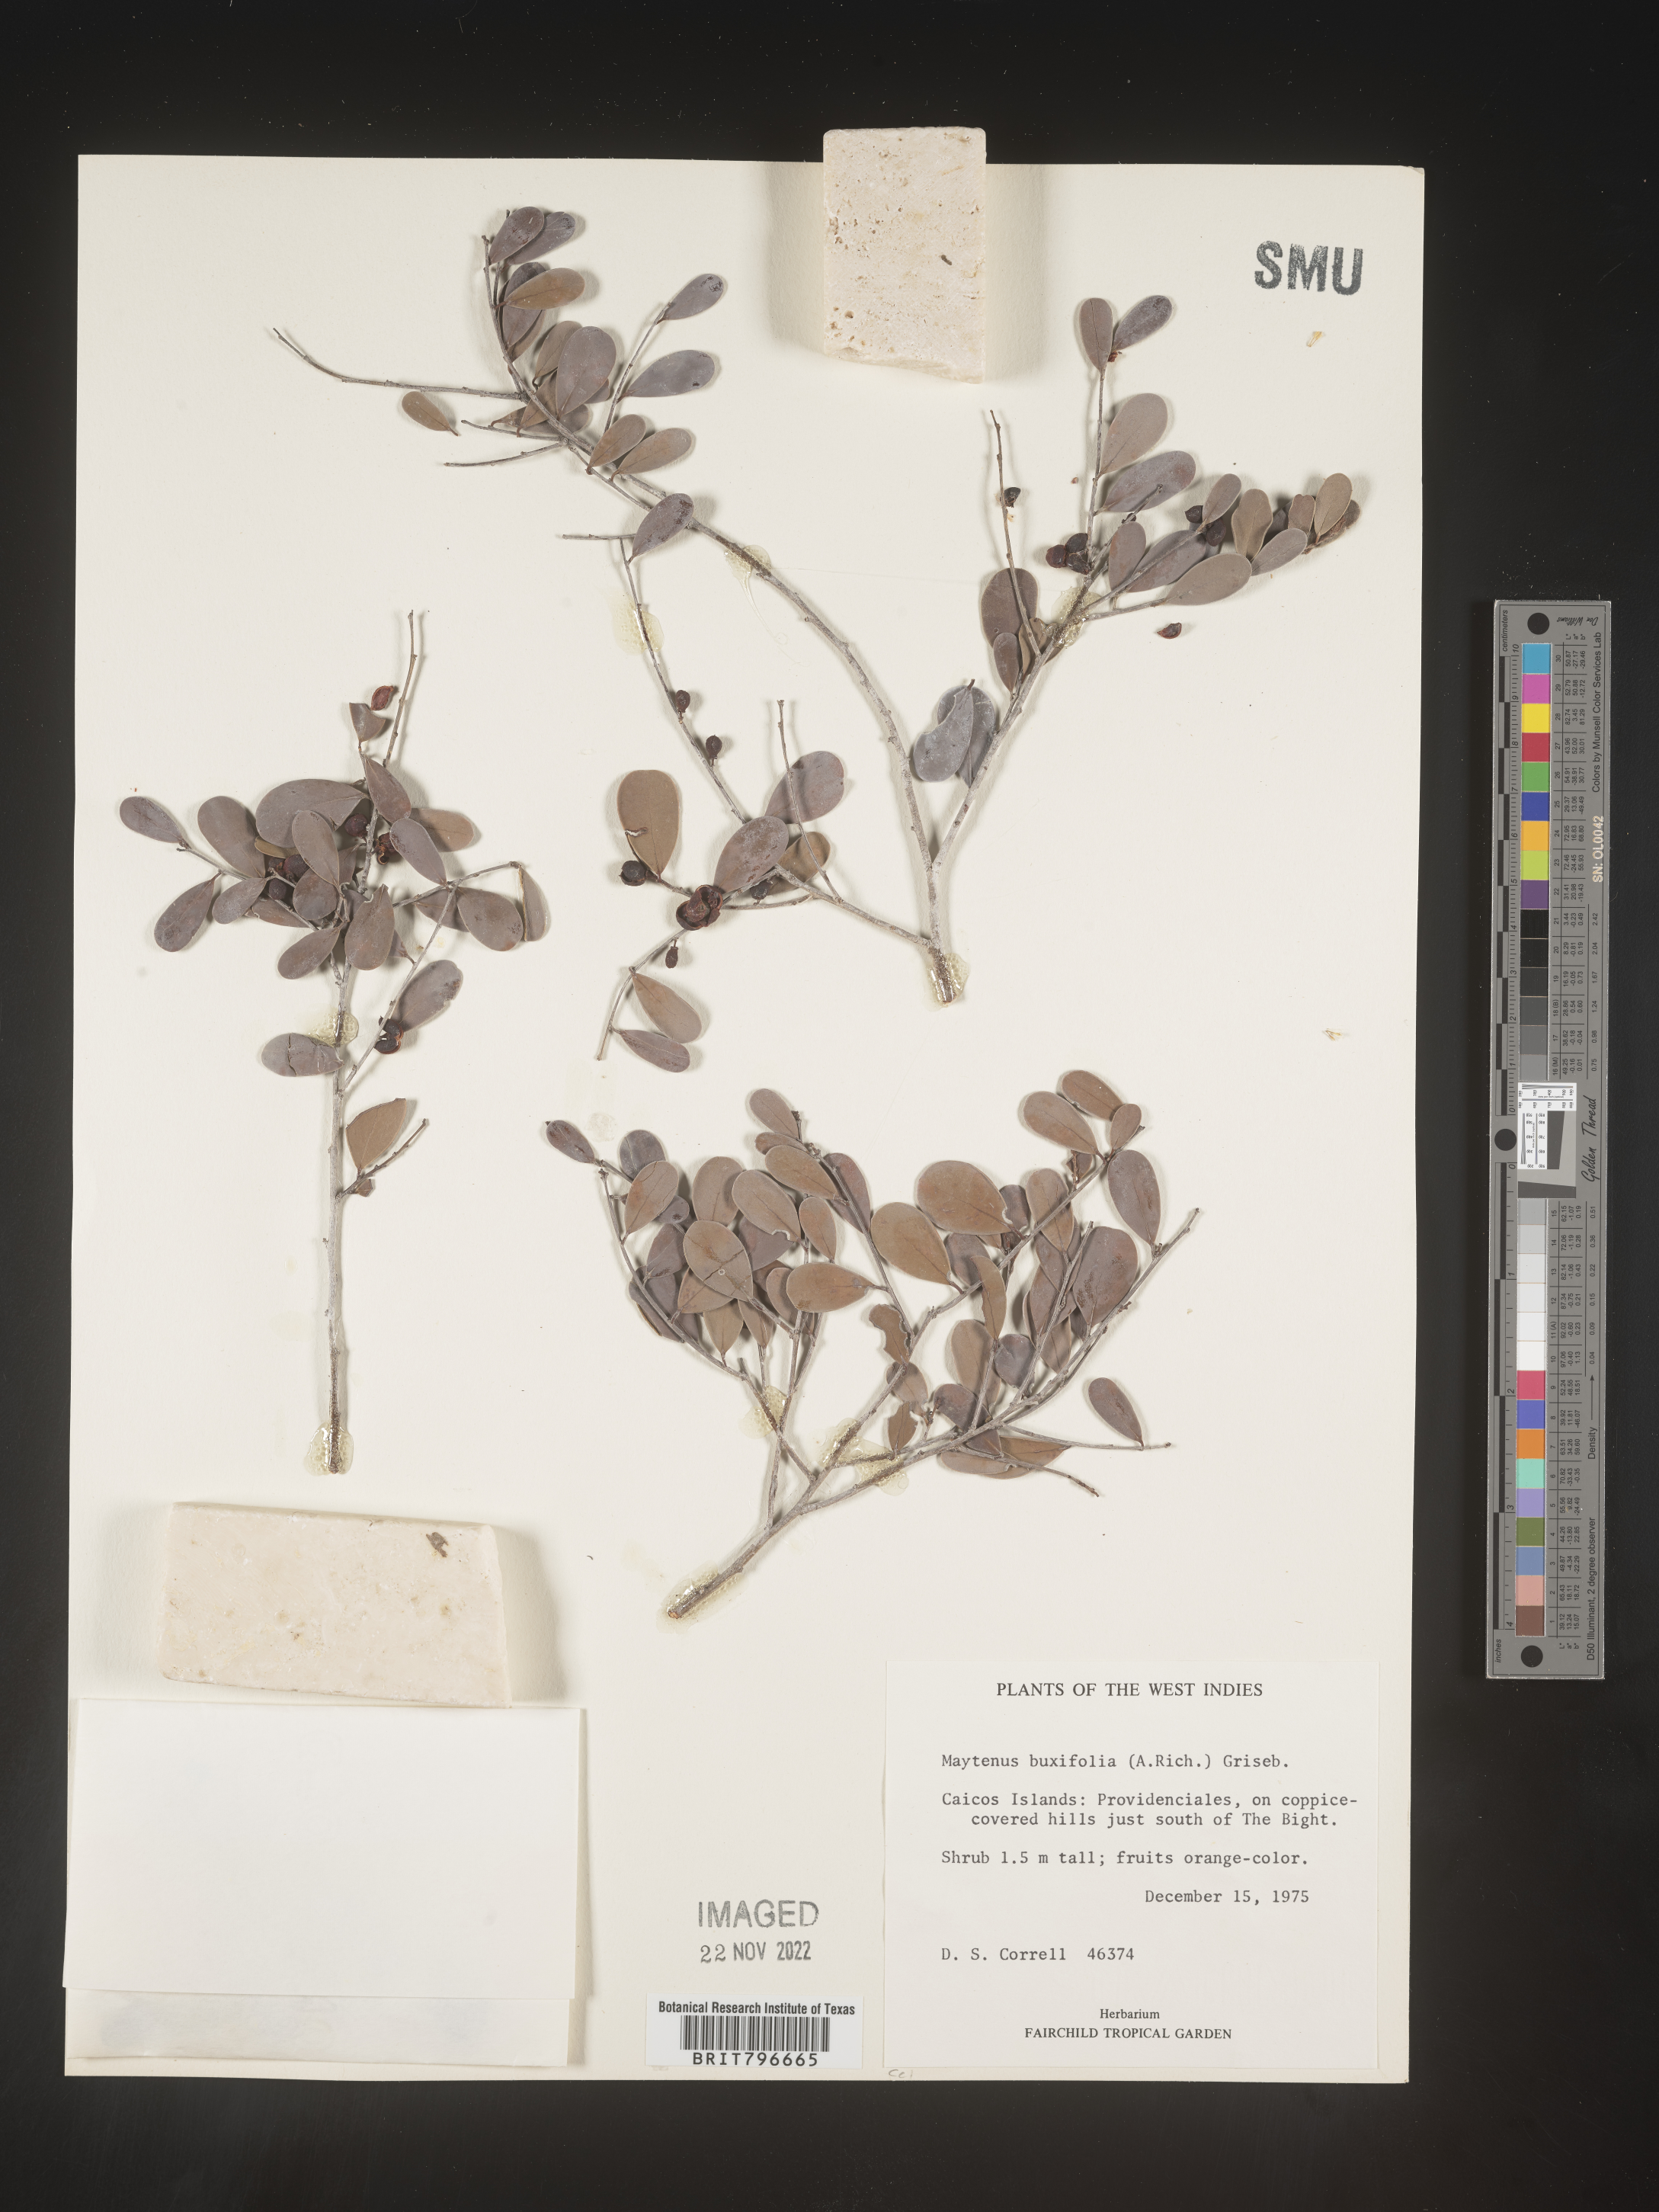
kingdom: Plantae
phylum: Tracheophyta
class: Magnoliopsida
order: Celastrales
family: Celastraceae
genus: Maytenus
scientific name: Maytenus
